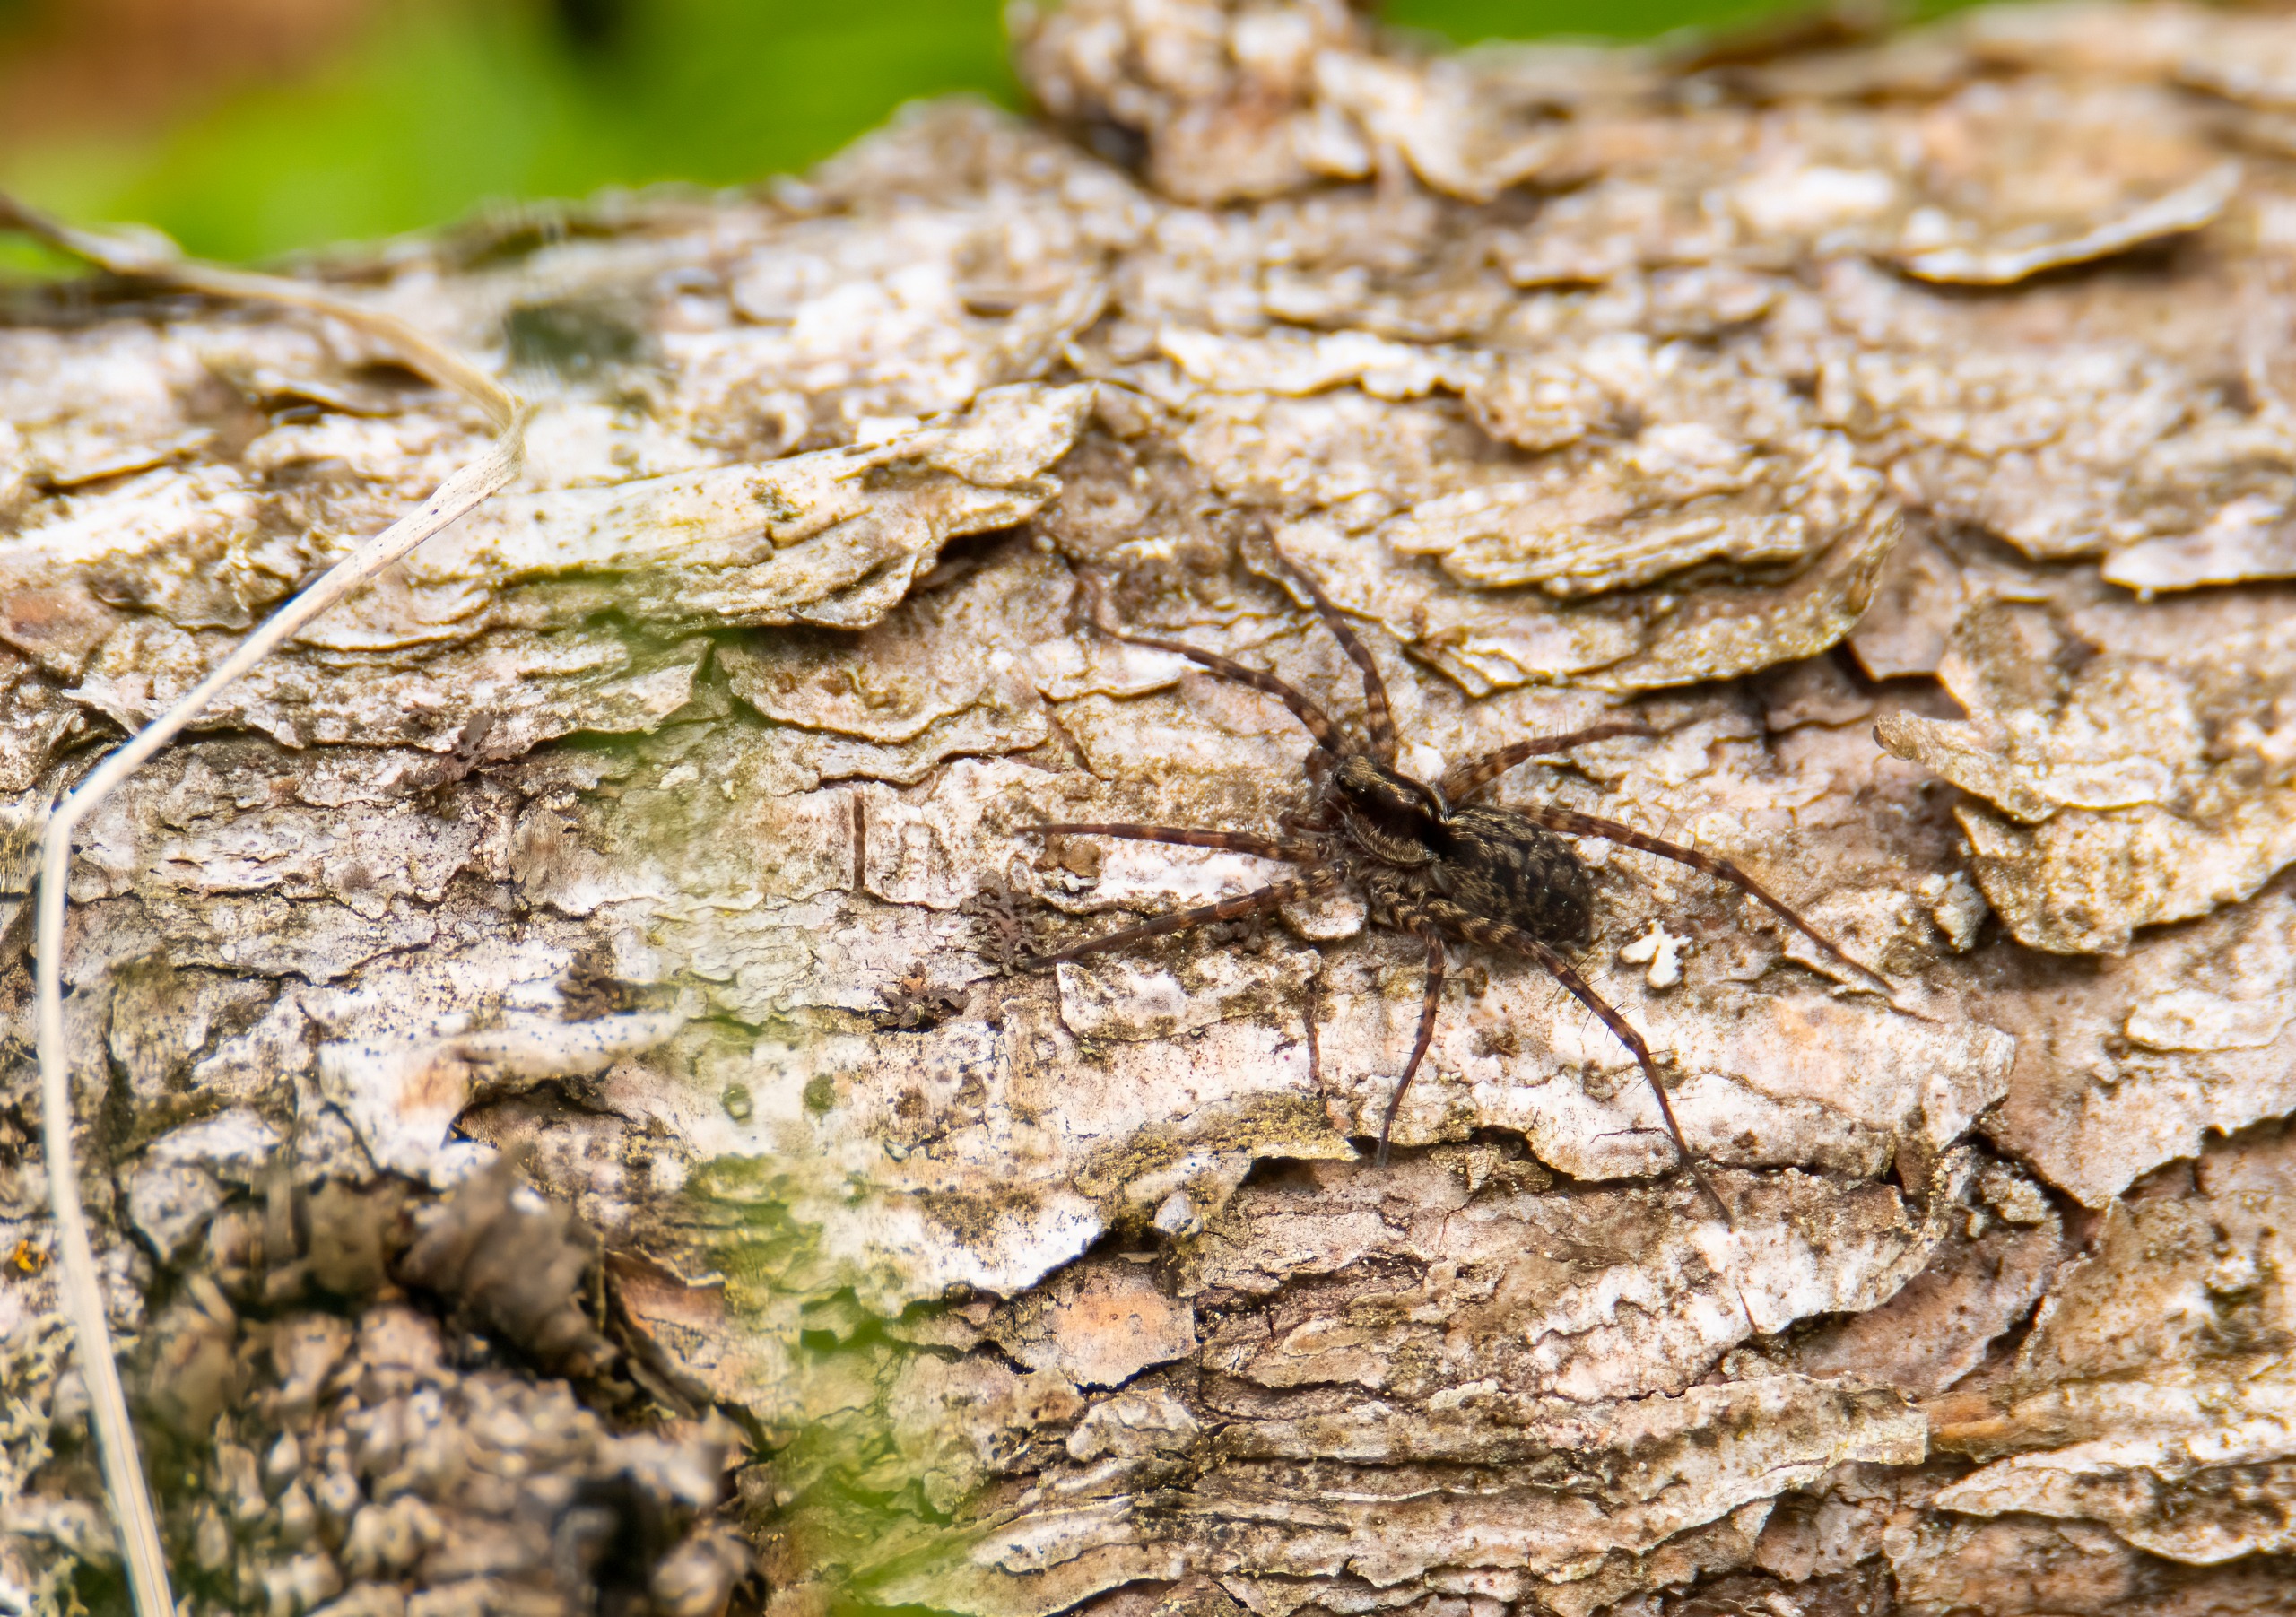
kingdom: Animalia
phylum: Arthropoda
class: Arachnida
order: Araneae
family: Lycosidae
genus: Pardosa
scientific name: Pardosa
